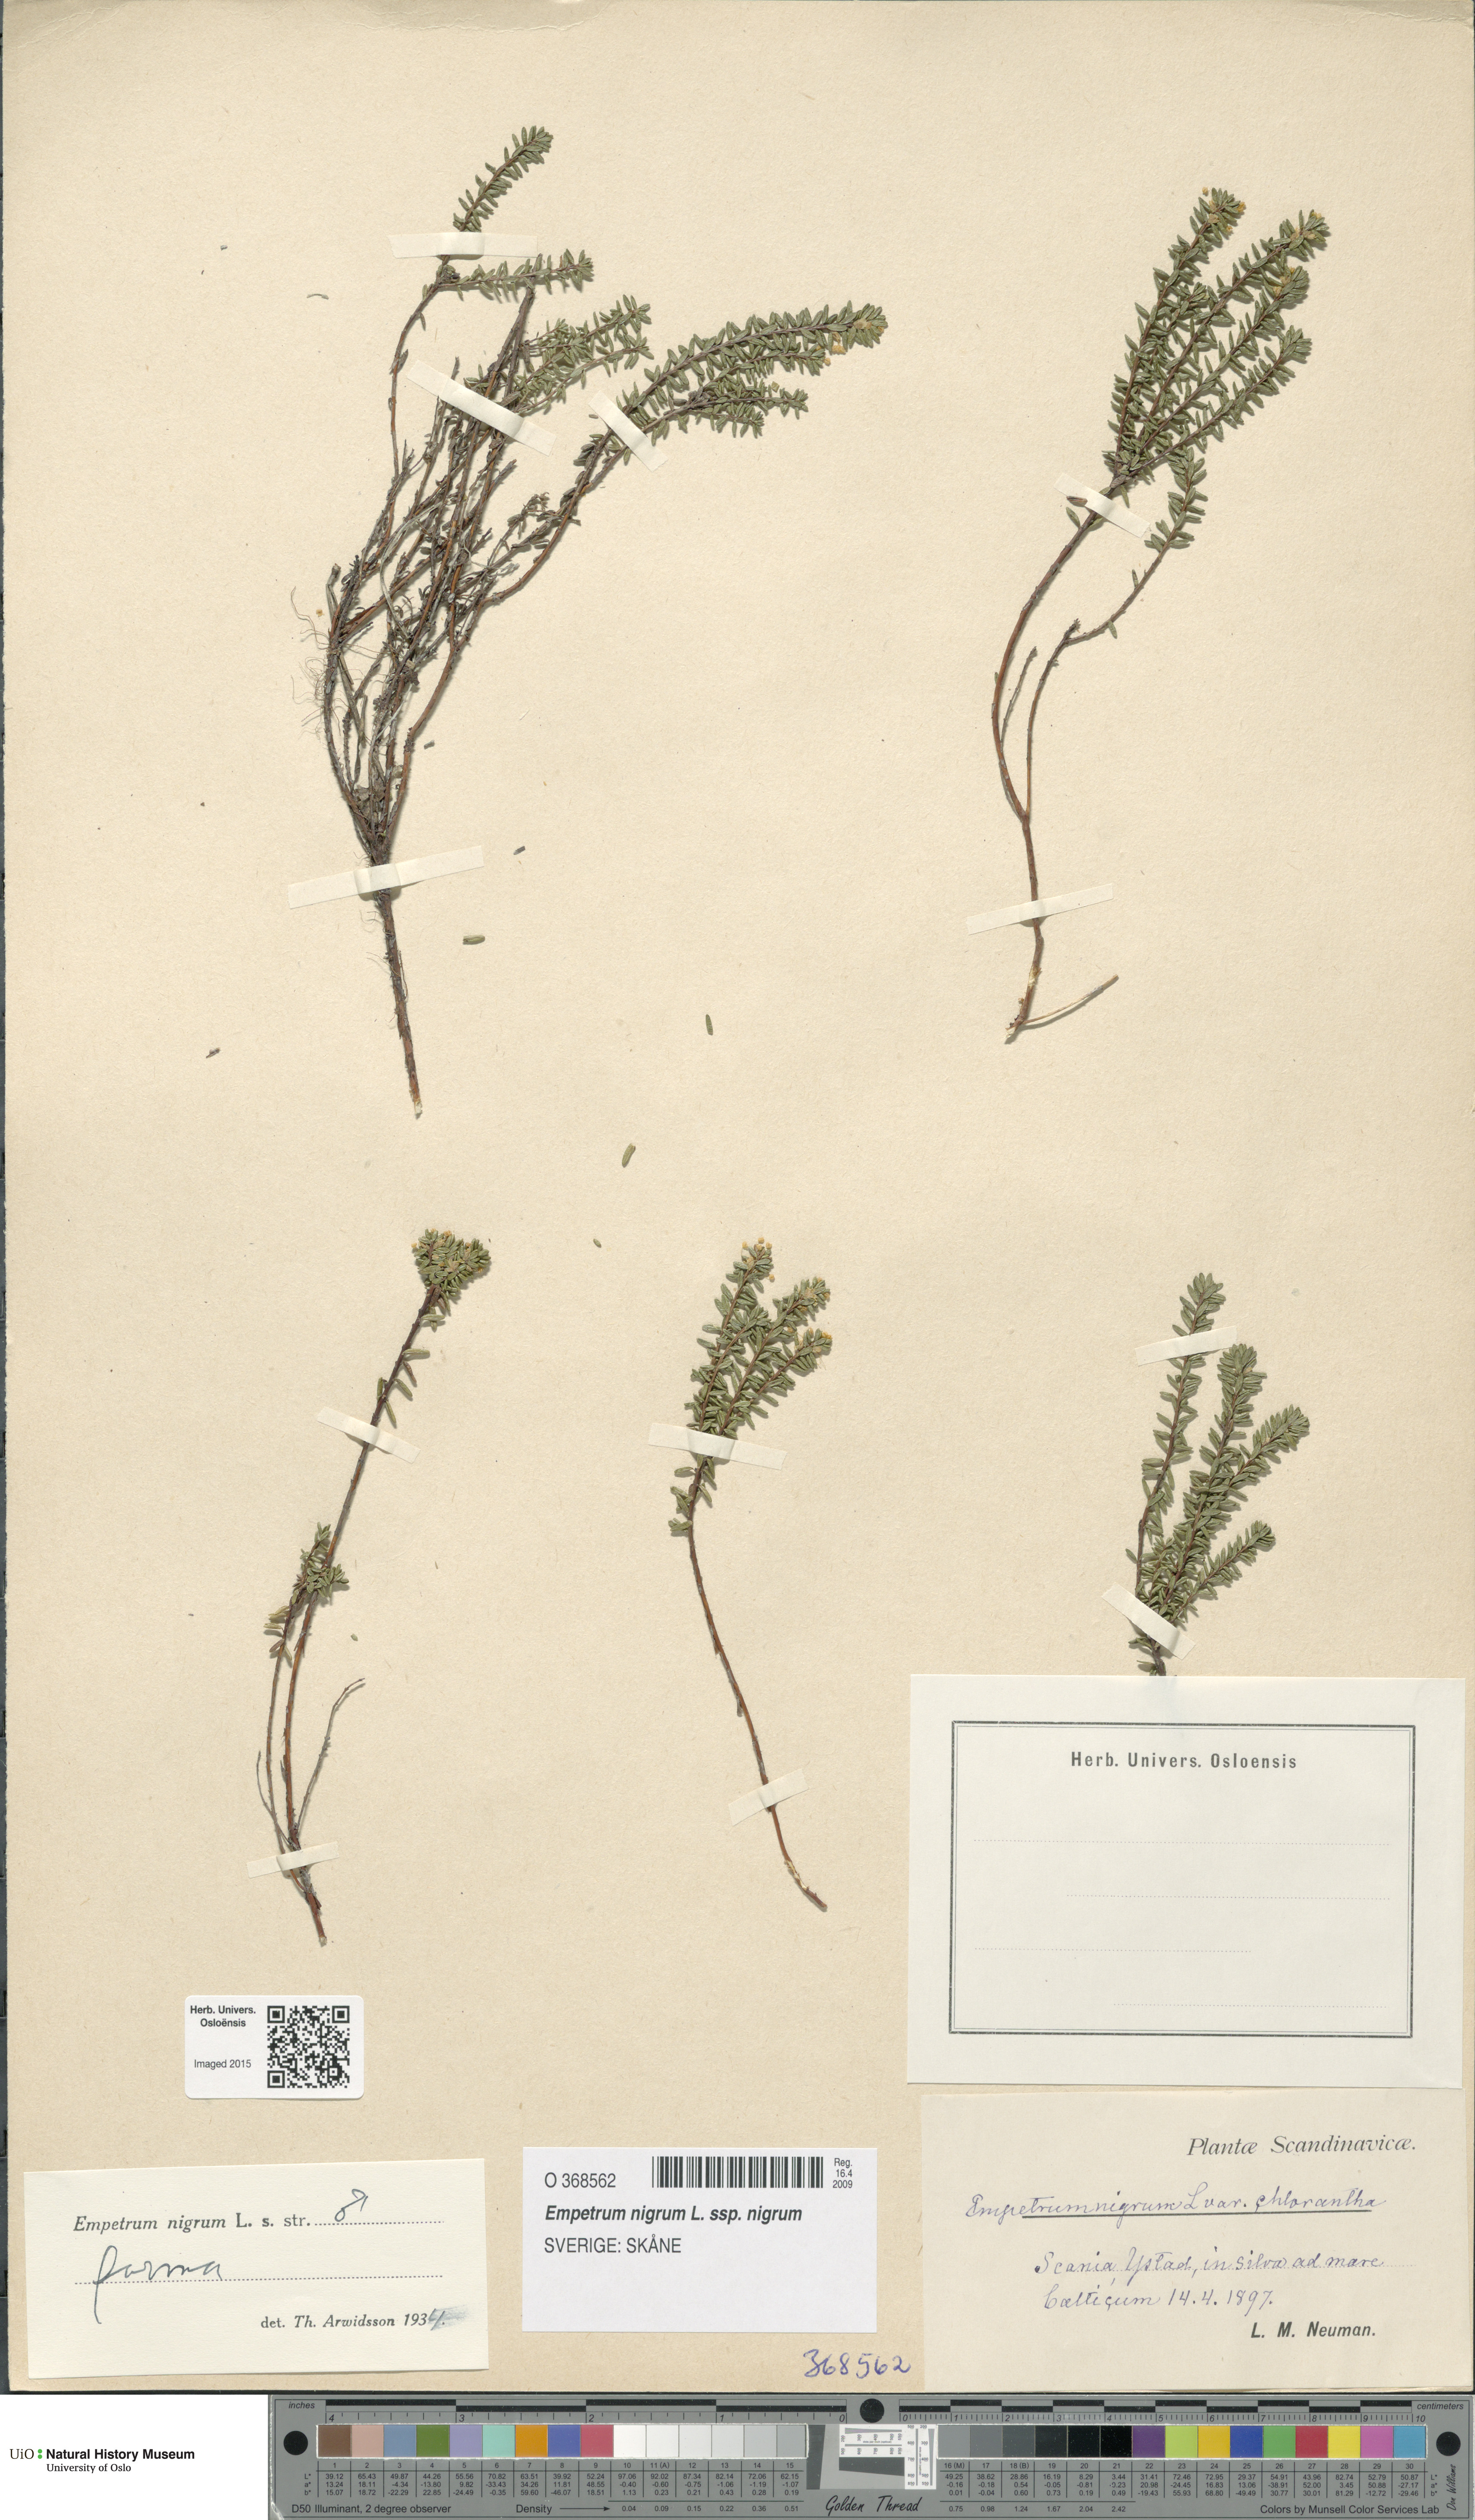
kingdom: Plantae
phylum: Tracheophyta
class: Magnoliopsida
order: Ericales
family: Ericaceae
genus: Empetrum
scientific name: Empetrum nigrum
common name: Black crowberry
